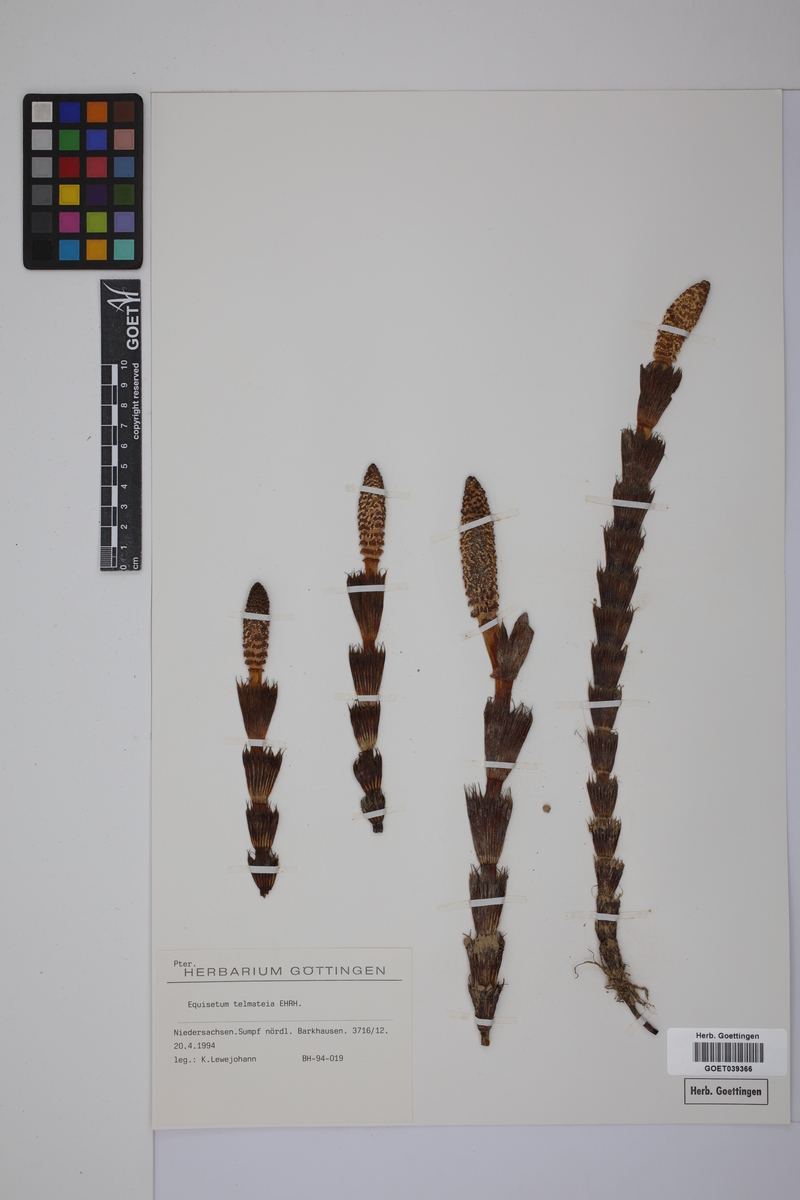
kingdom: Plantae
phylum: Tracheophyta
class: Polypodiopsida
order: Equisetales
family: Equisetaceae
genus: Equisetum
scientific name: Equisetum telmateia
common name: Great horsetail
